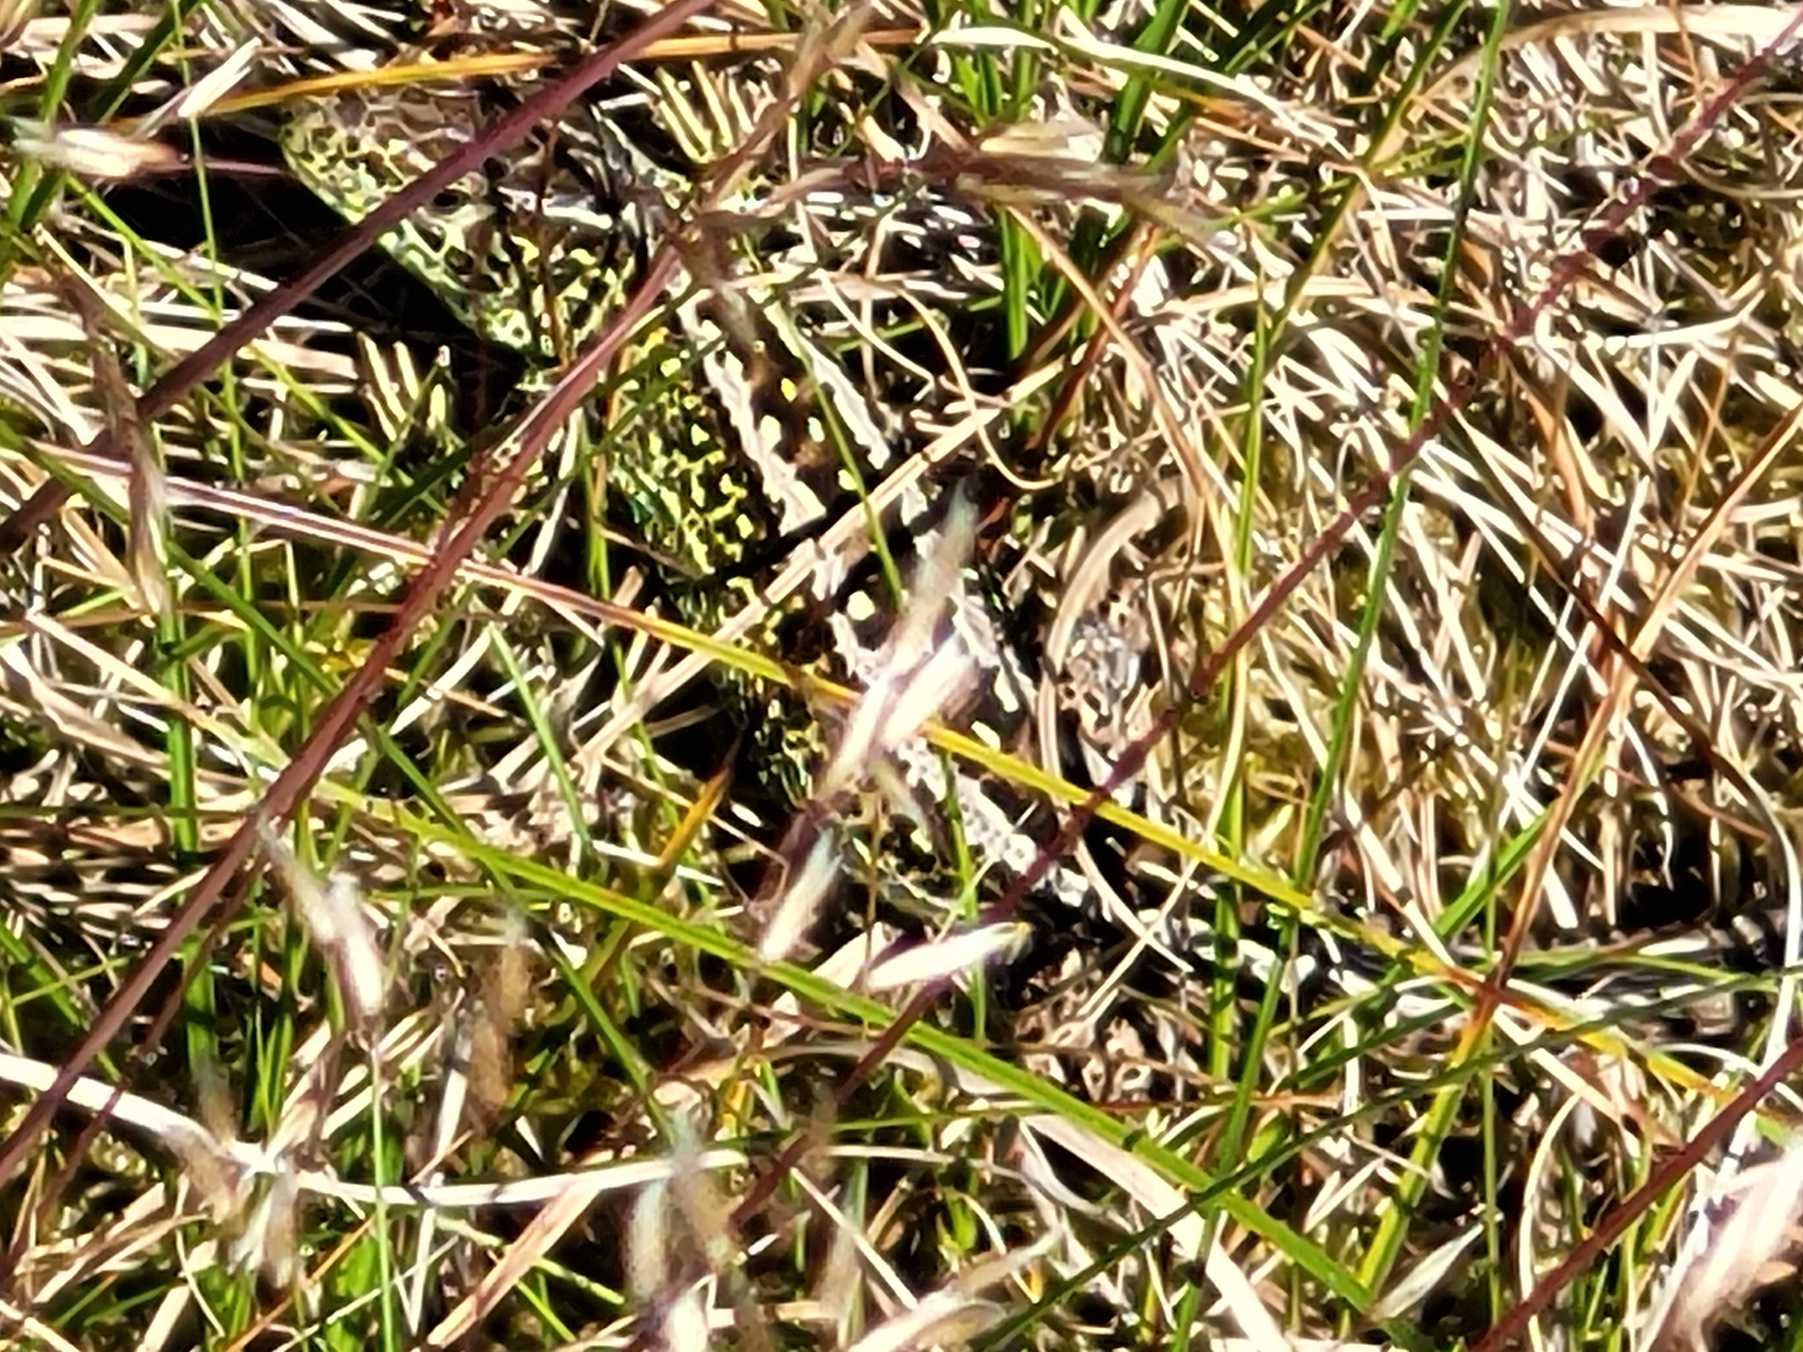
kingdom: Animalia
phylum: Chordata
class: Squamata
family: Lacertidae
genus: Lacerta
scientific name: Lacerta agilis
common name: Markfirben
